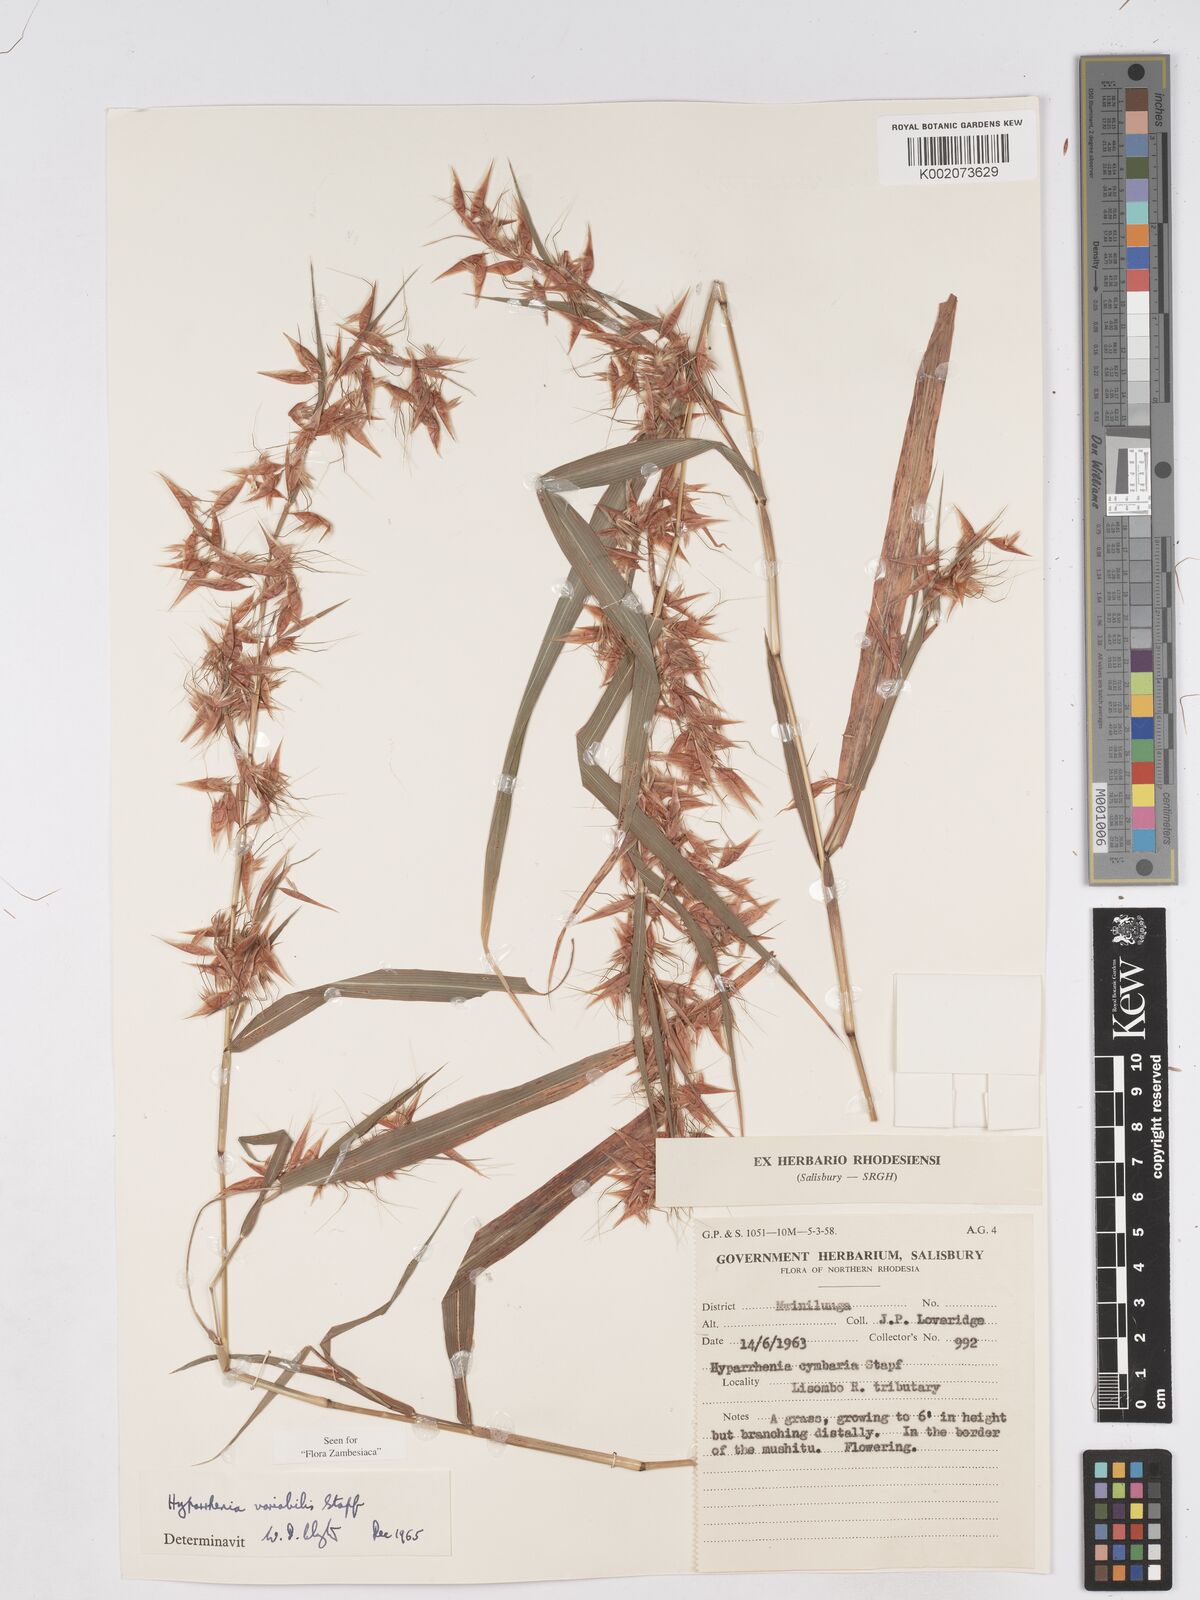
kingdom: Plantae
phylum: Tracheophyta
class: Liliopsida
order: Poales
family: Poaceae
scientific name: Poaceae
